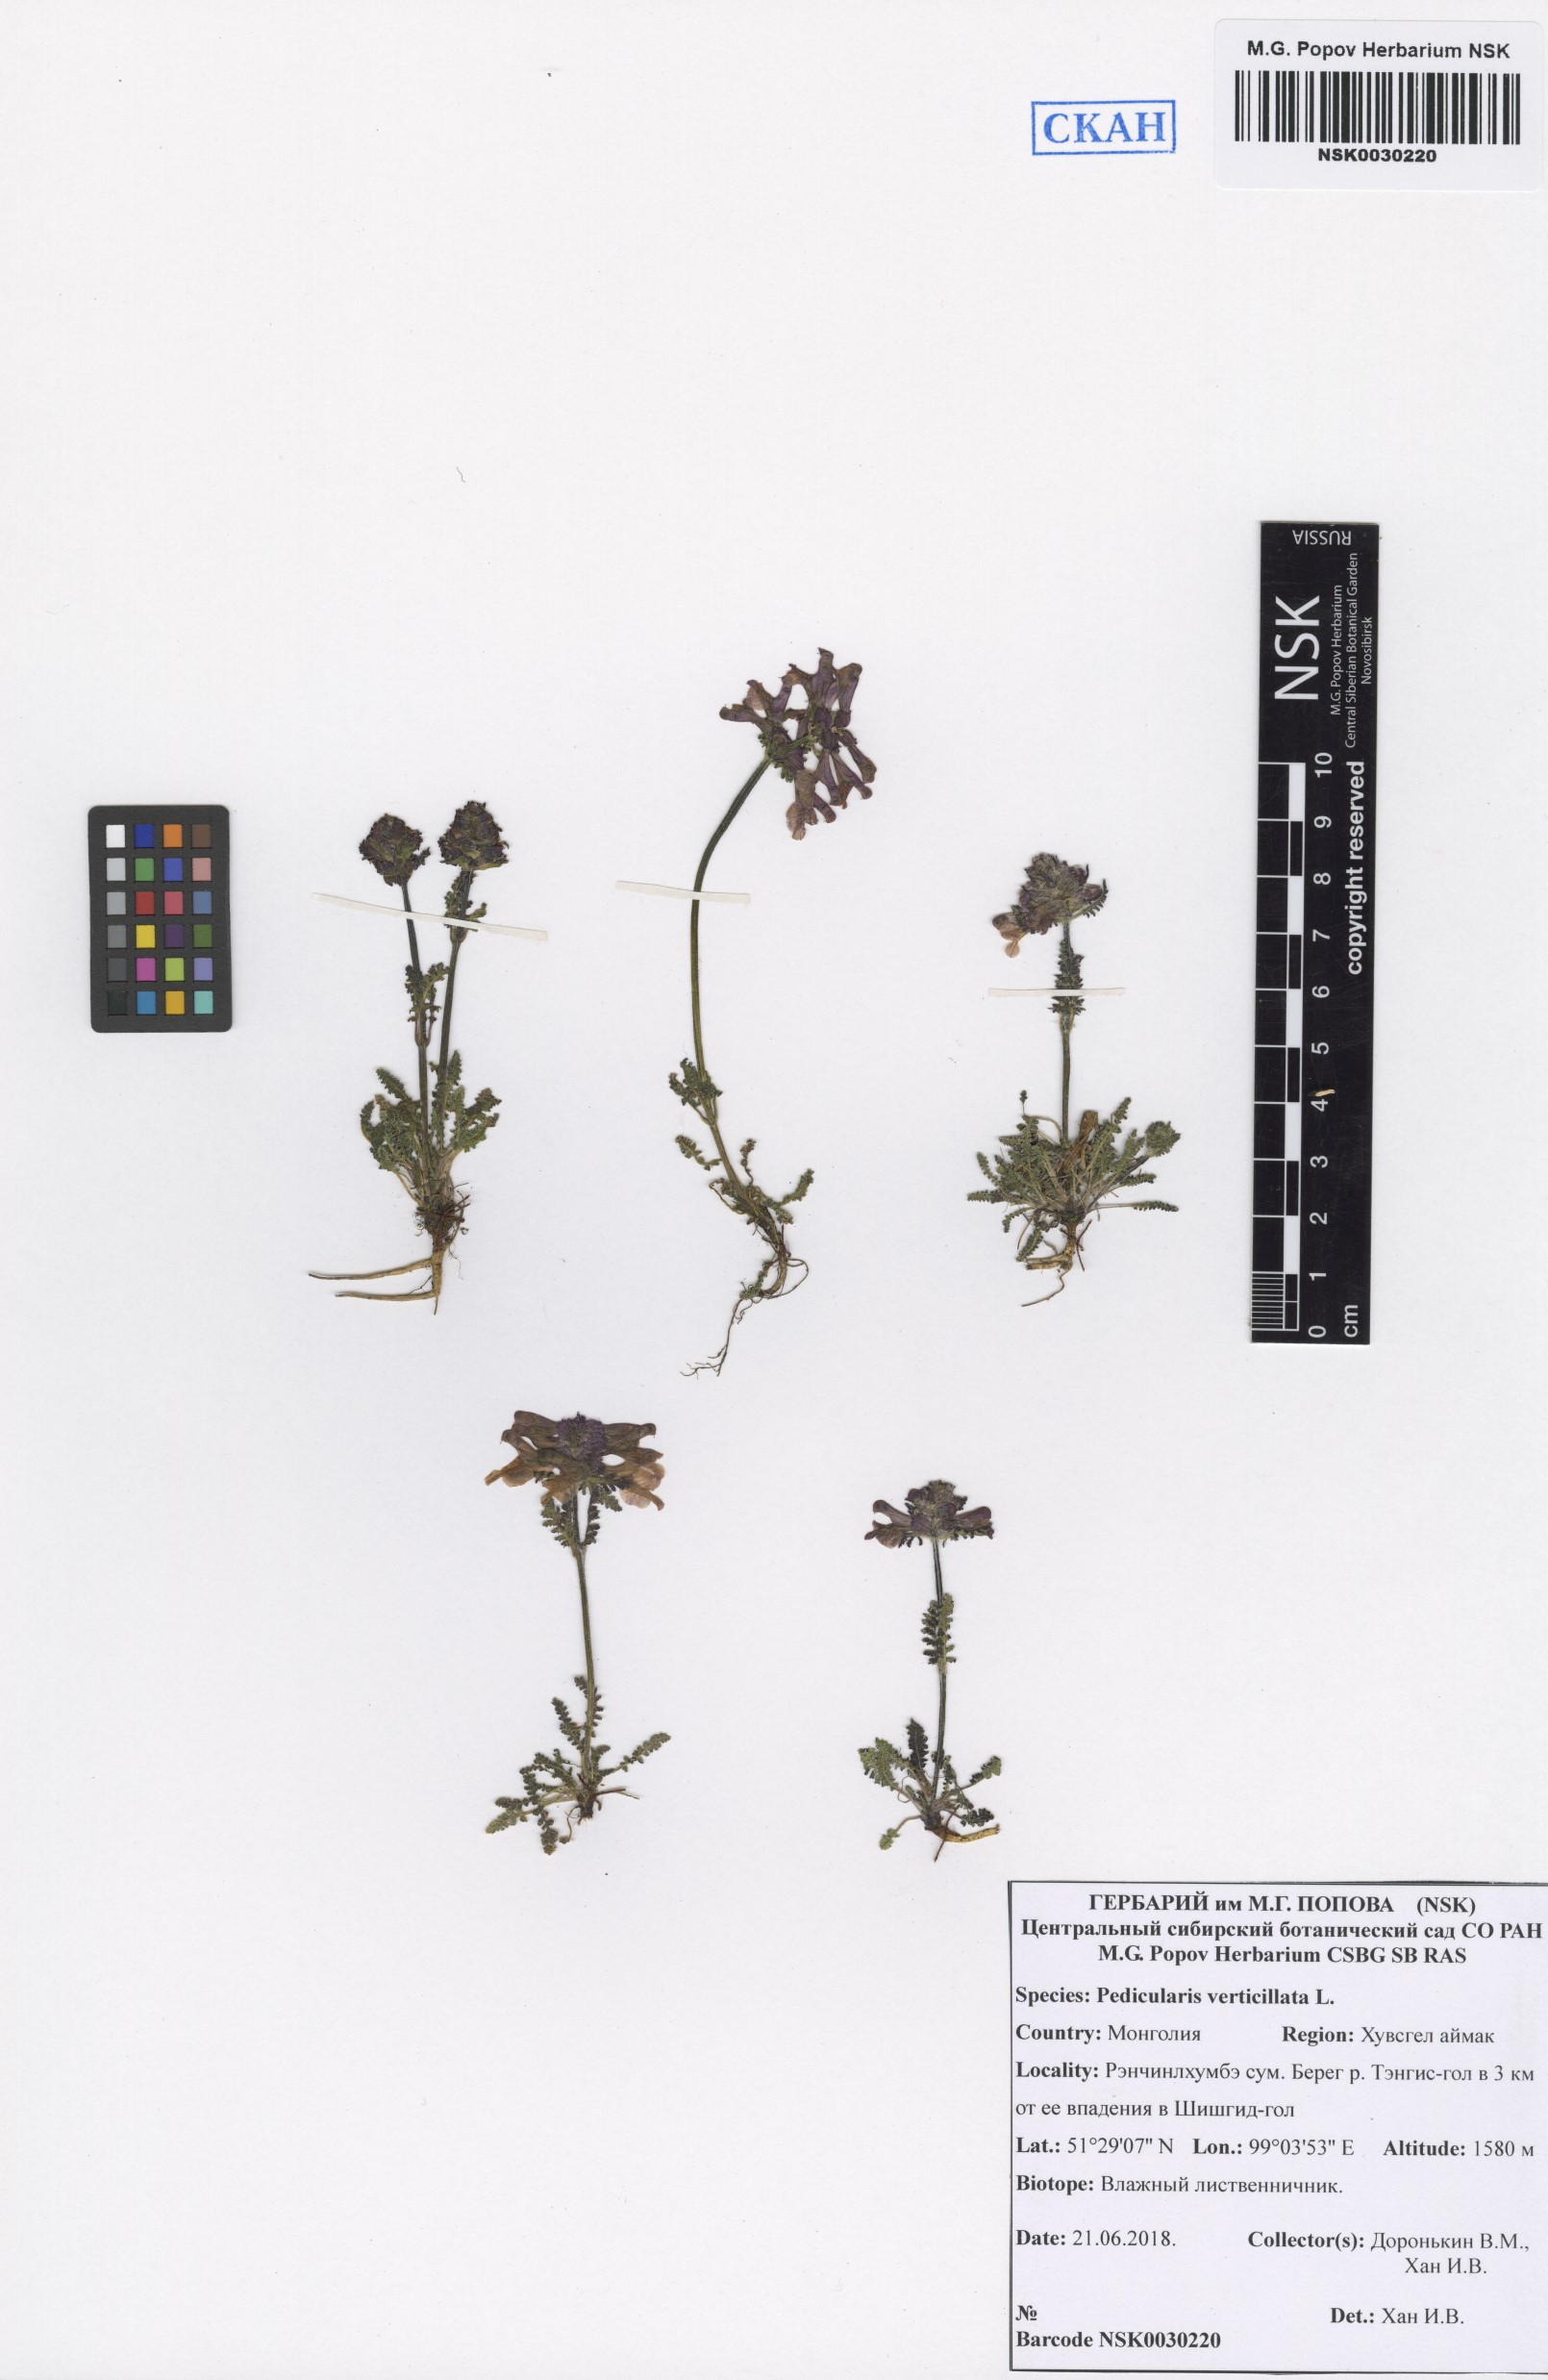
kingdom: Plantae
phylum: Tracheophyta
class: Magnoliopsida
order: Lamiales
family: Orobanchaceae
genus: Pedicularis
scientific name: Pedicularis verticillata
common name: Whorled lousewort
